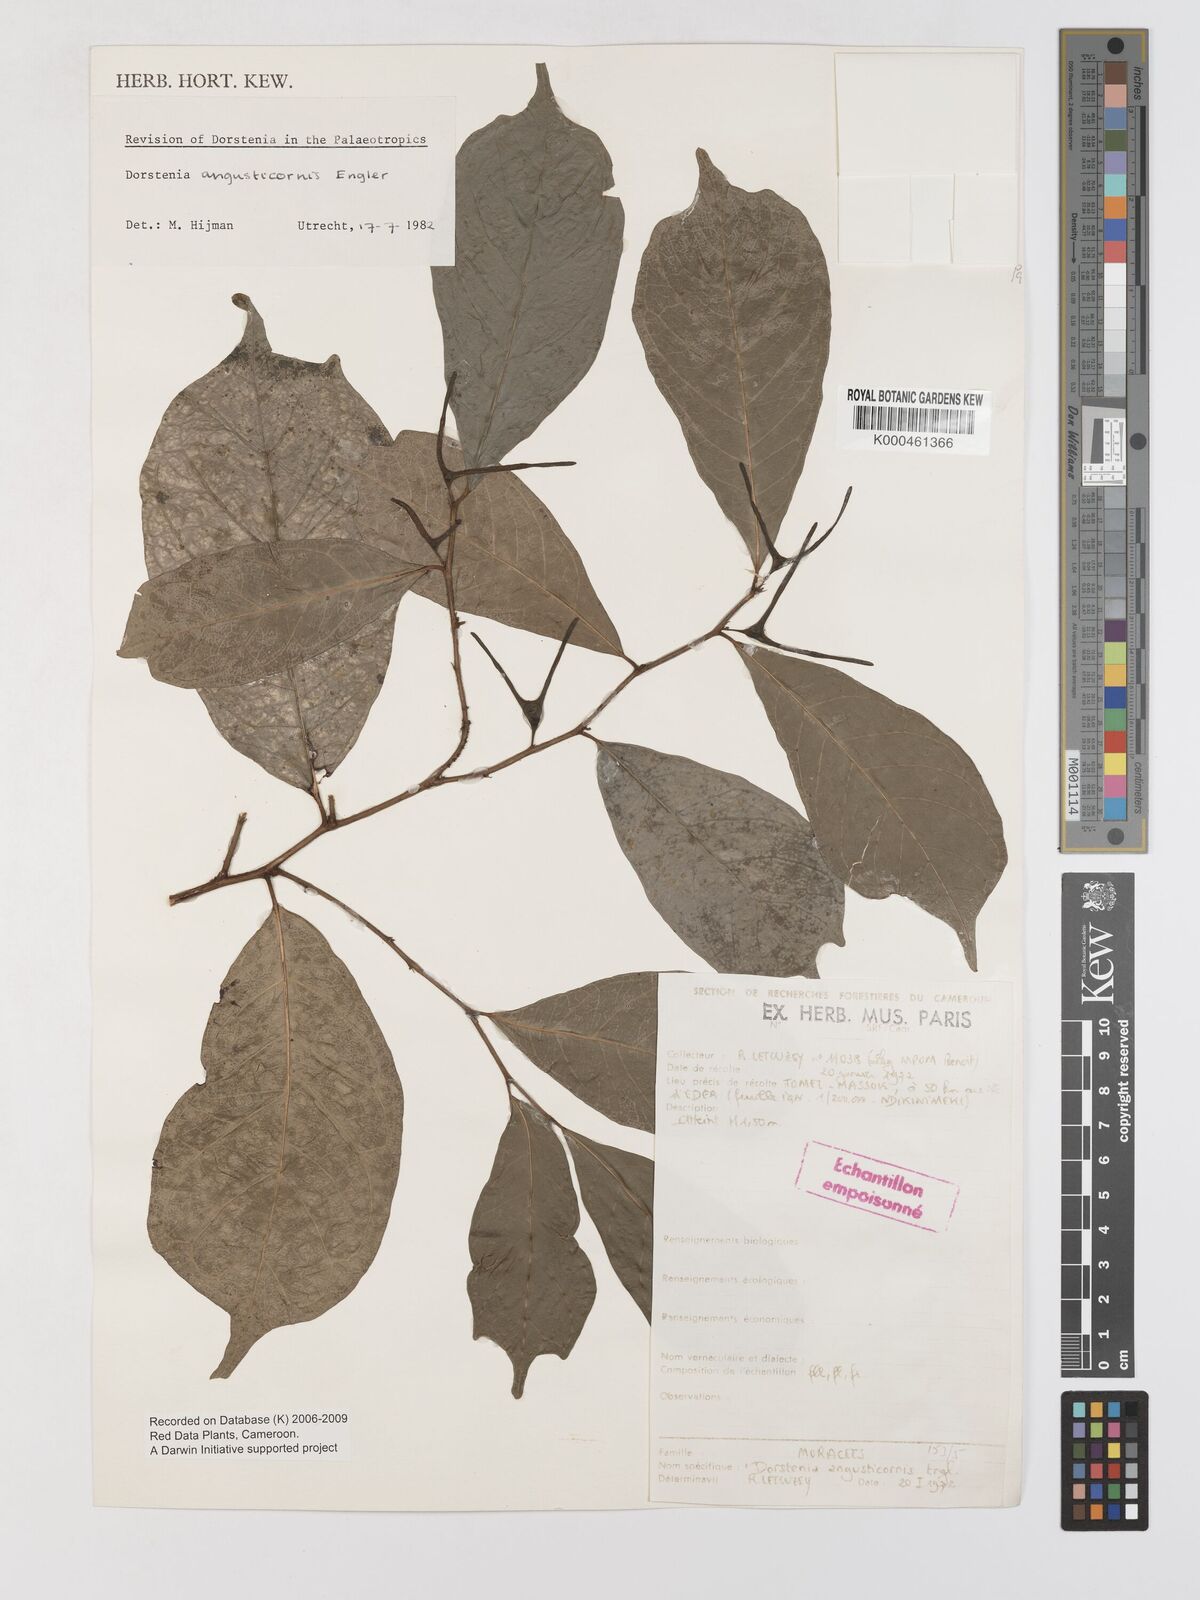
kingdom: Plantae
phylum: Tracheophyta
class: Magnoliopsida
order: Rosales
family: Moraceae
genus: Hijmania
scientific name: Hijmania angusticornis
